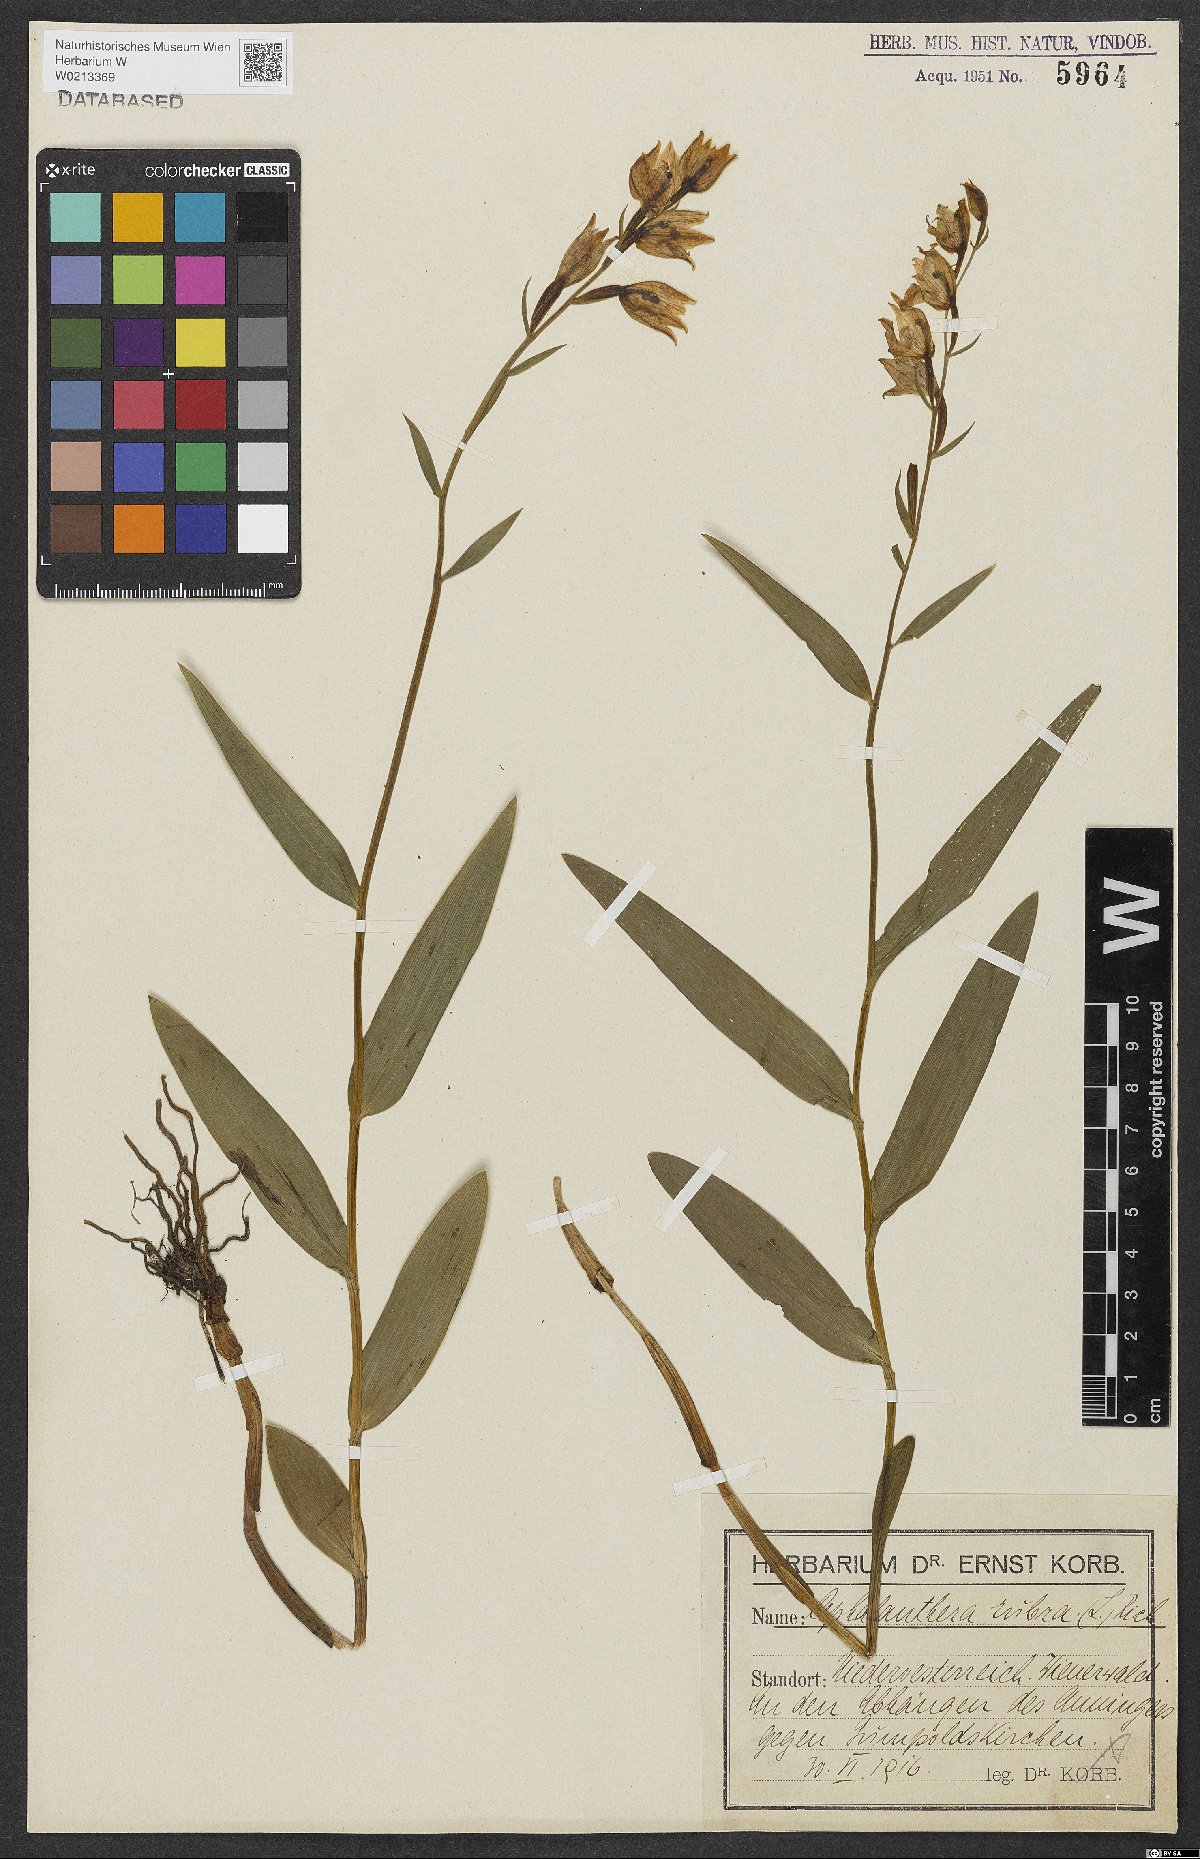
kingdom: Plantae
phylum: Tracheophyta
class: Liliopsida
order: Asparagales
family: Orchidaceae
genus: Cephalanthera
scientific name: Cephalanthera rubra
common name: Red helleborine
